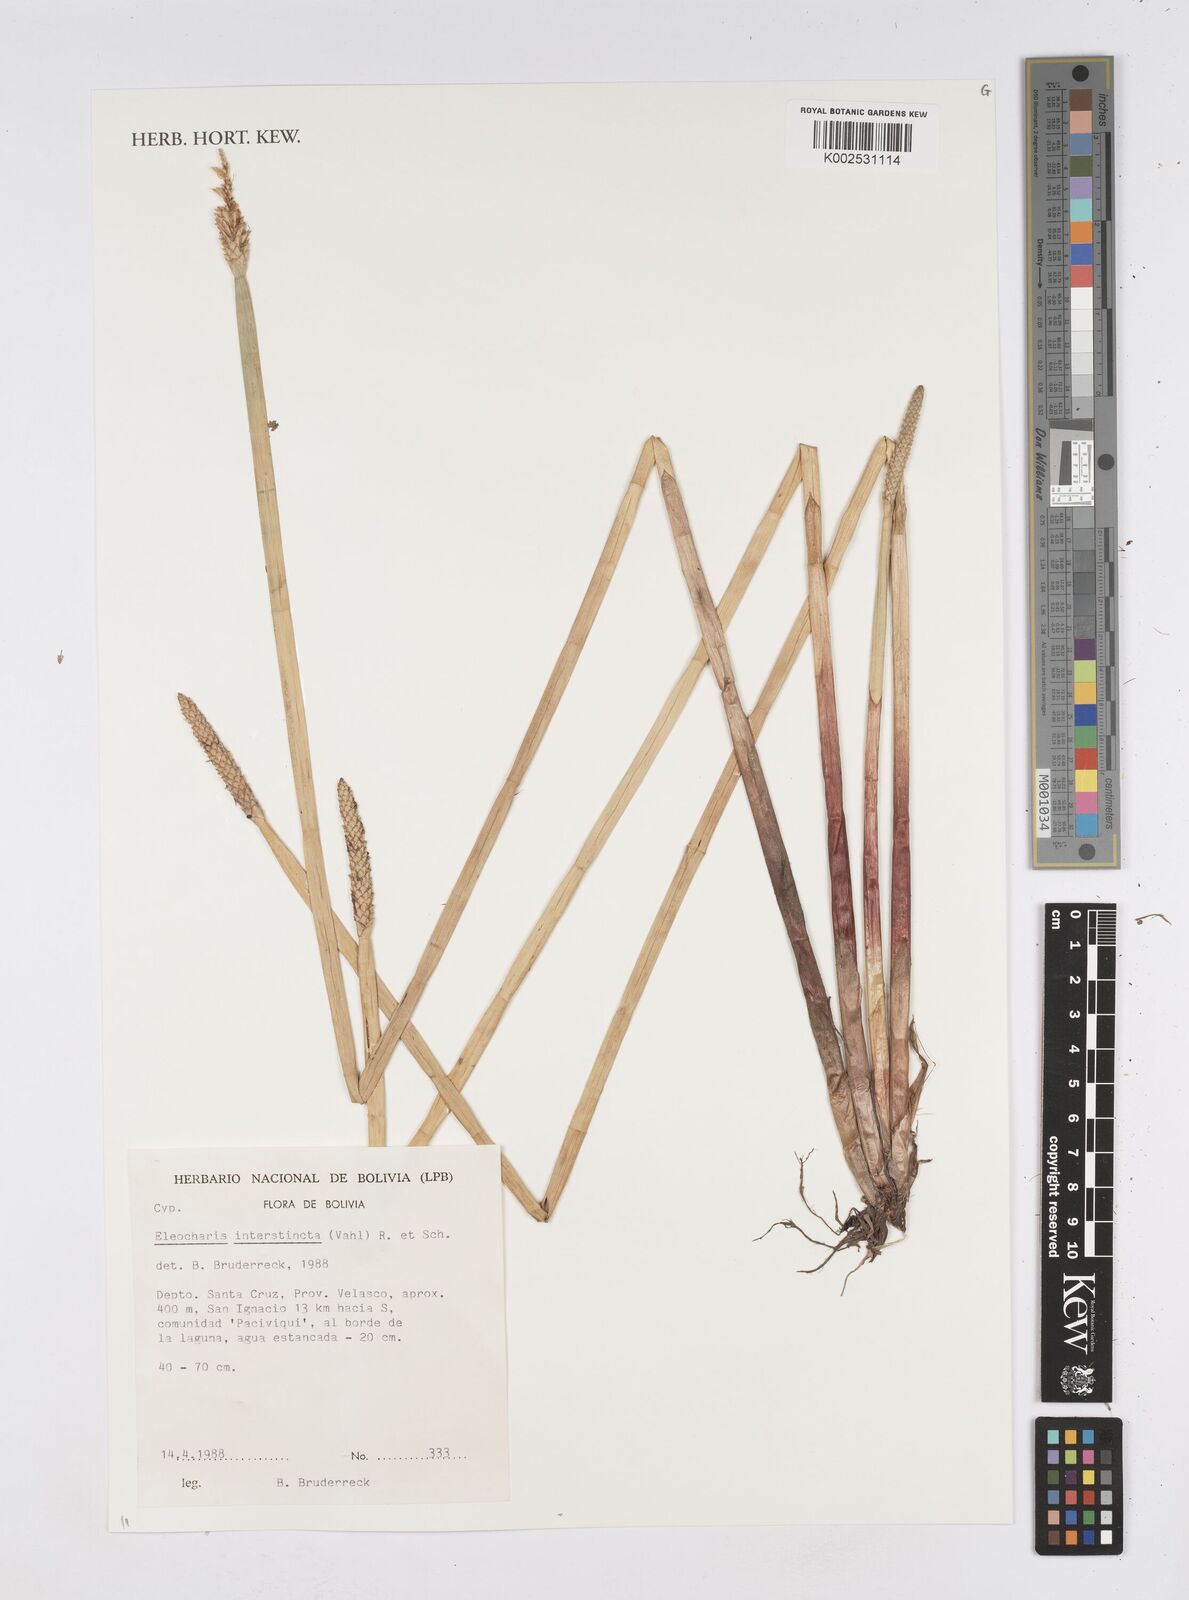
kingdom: Plantae
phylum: Tracheophyta
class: Liliopsida
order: Poales
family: Cyperaceae
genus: Eleocharis
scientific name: Eleocharis interstincta
